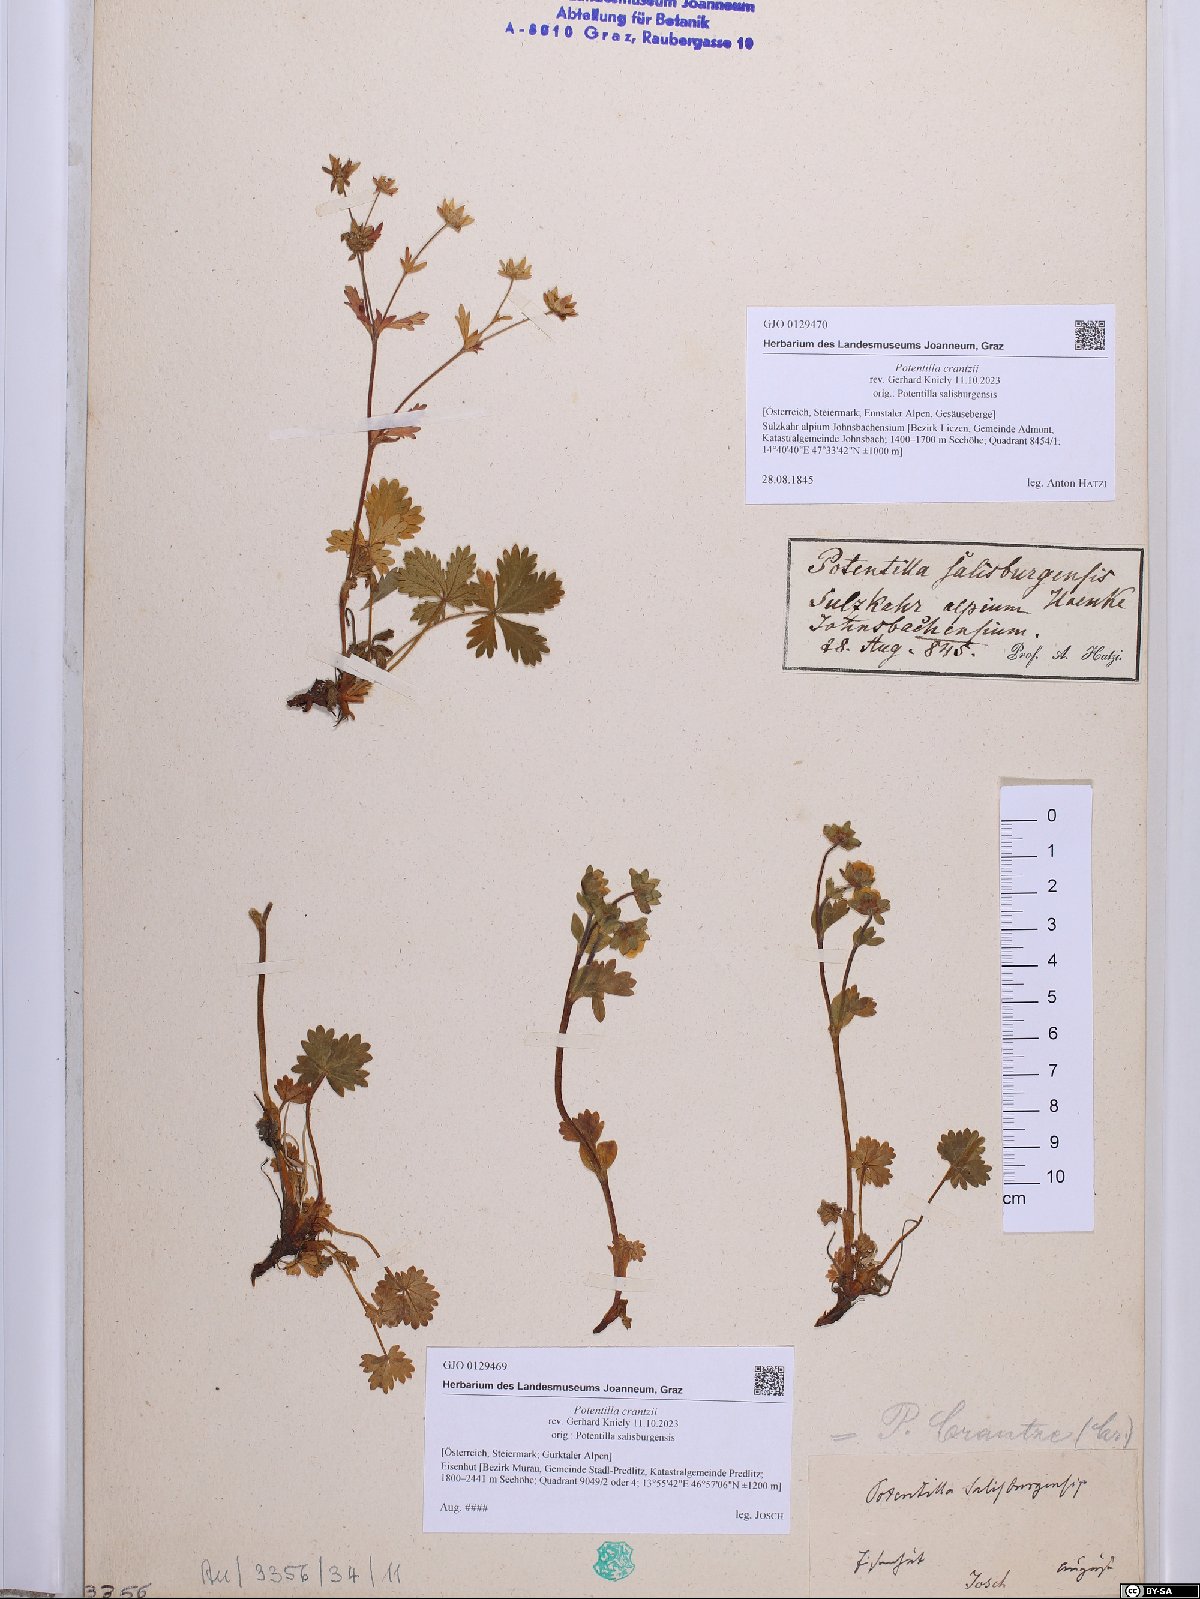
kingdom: Plantae
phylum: Tracheophyta
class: Magnoliopsida
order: Rosales
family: Rosaceae
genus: Potentilla
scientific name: Potentilla crantzii
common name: Alpine cinquefoil
